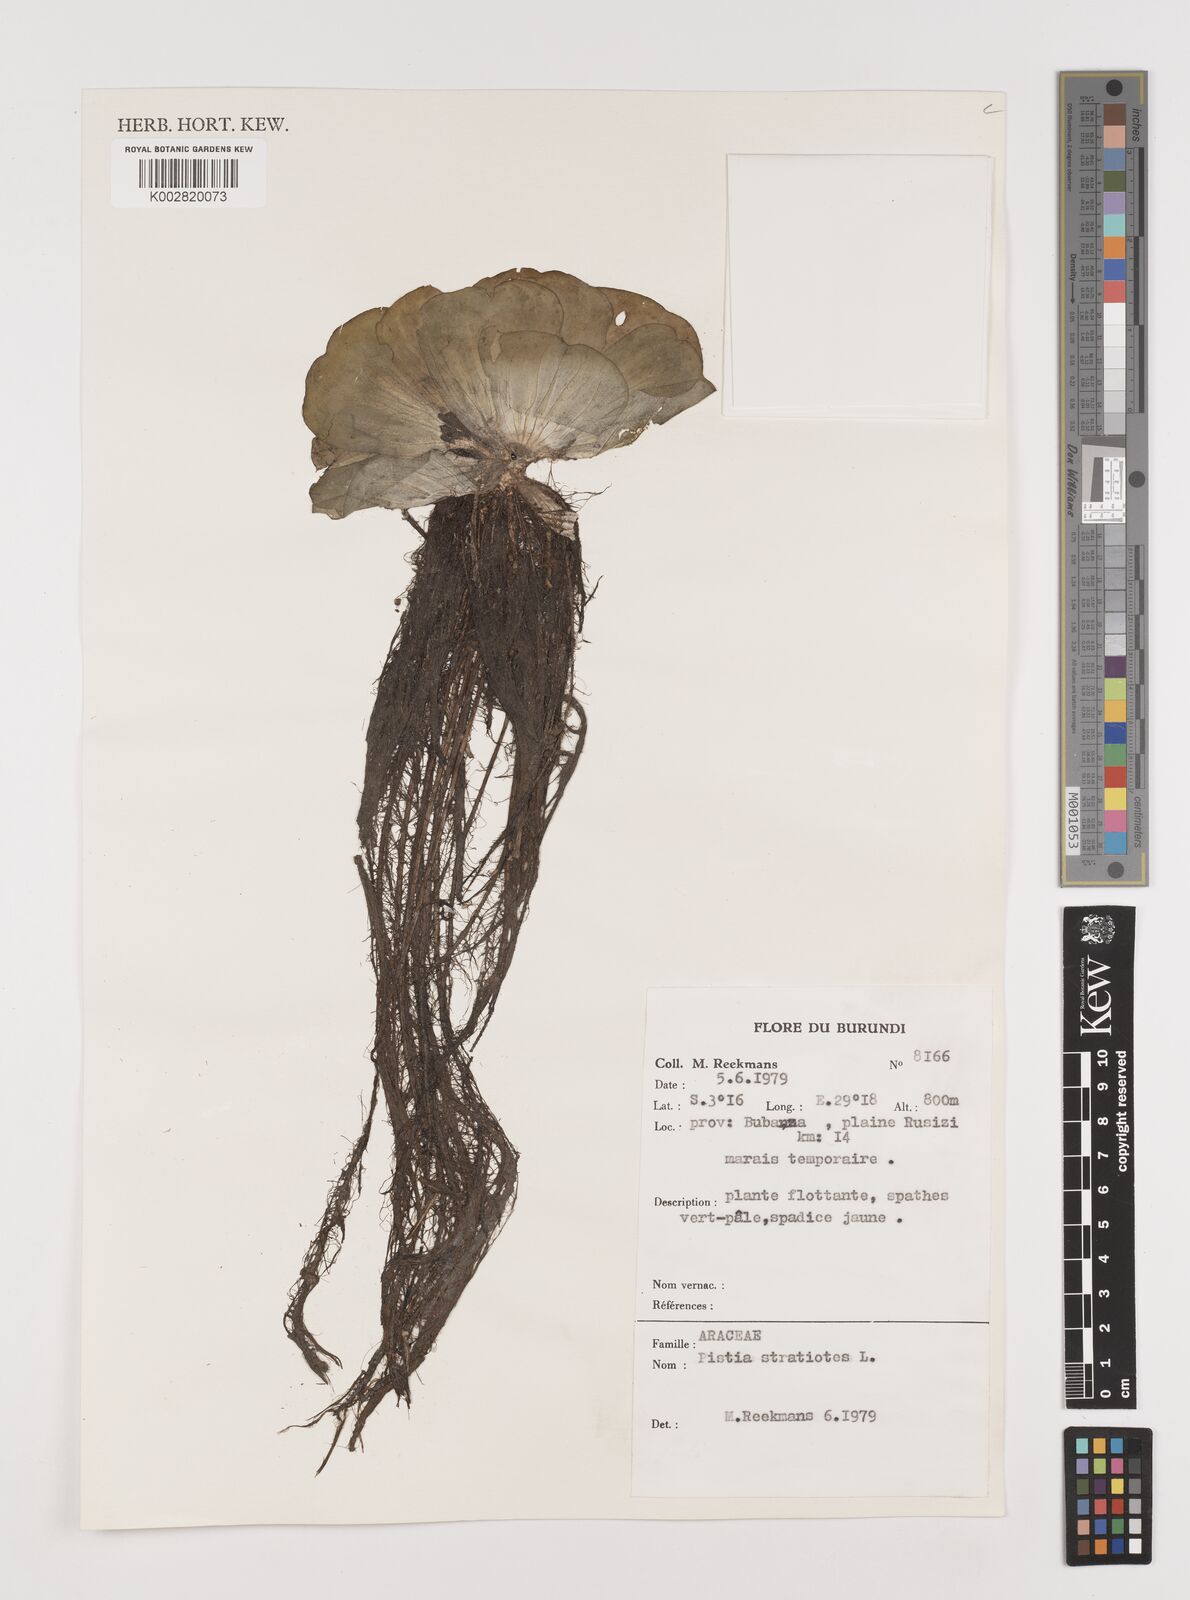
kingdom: Plantae
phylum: Tracheophyta
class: Liliopsida
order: Alismatales
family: Araceae
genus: Pistia
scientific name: Pistia stratiotes
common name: Water lettuce
